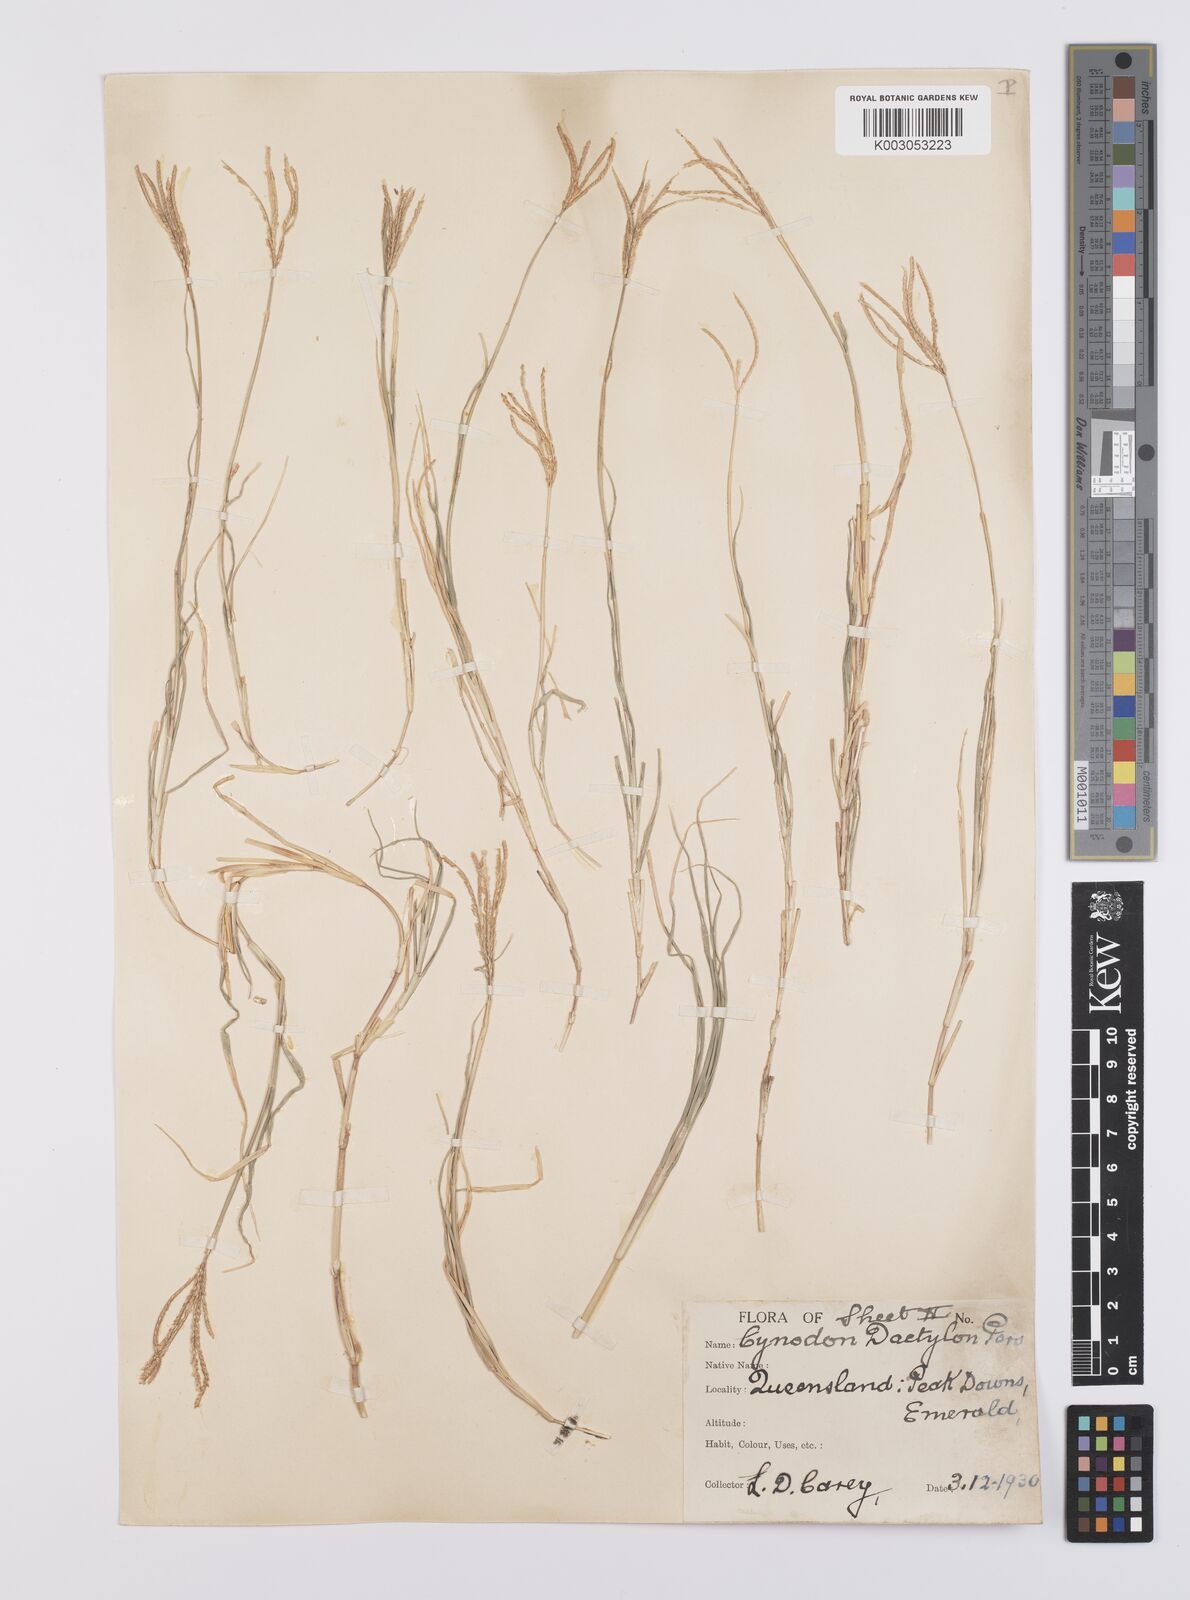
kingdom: Plantae
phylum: Tracheophyta
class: Liliopsida
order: Poales
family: Poaceae
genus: Cynodon
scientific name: Cynodon dactylon
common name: Bermuda grass
